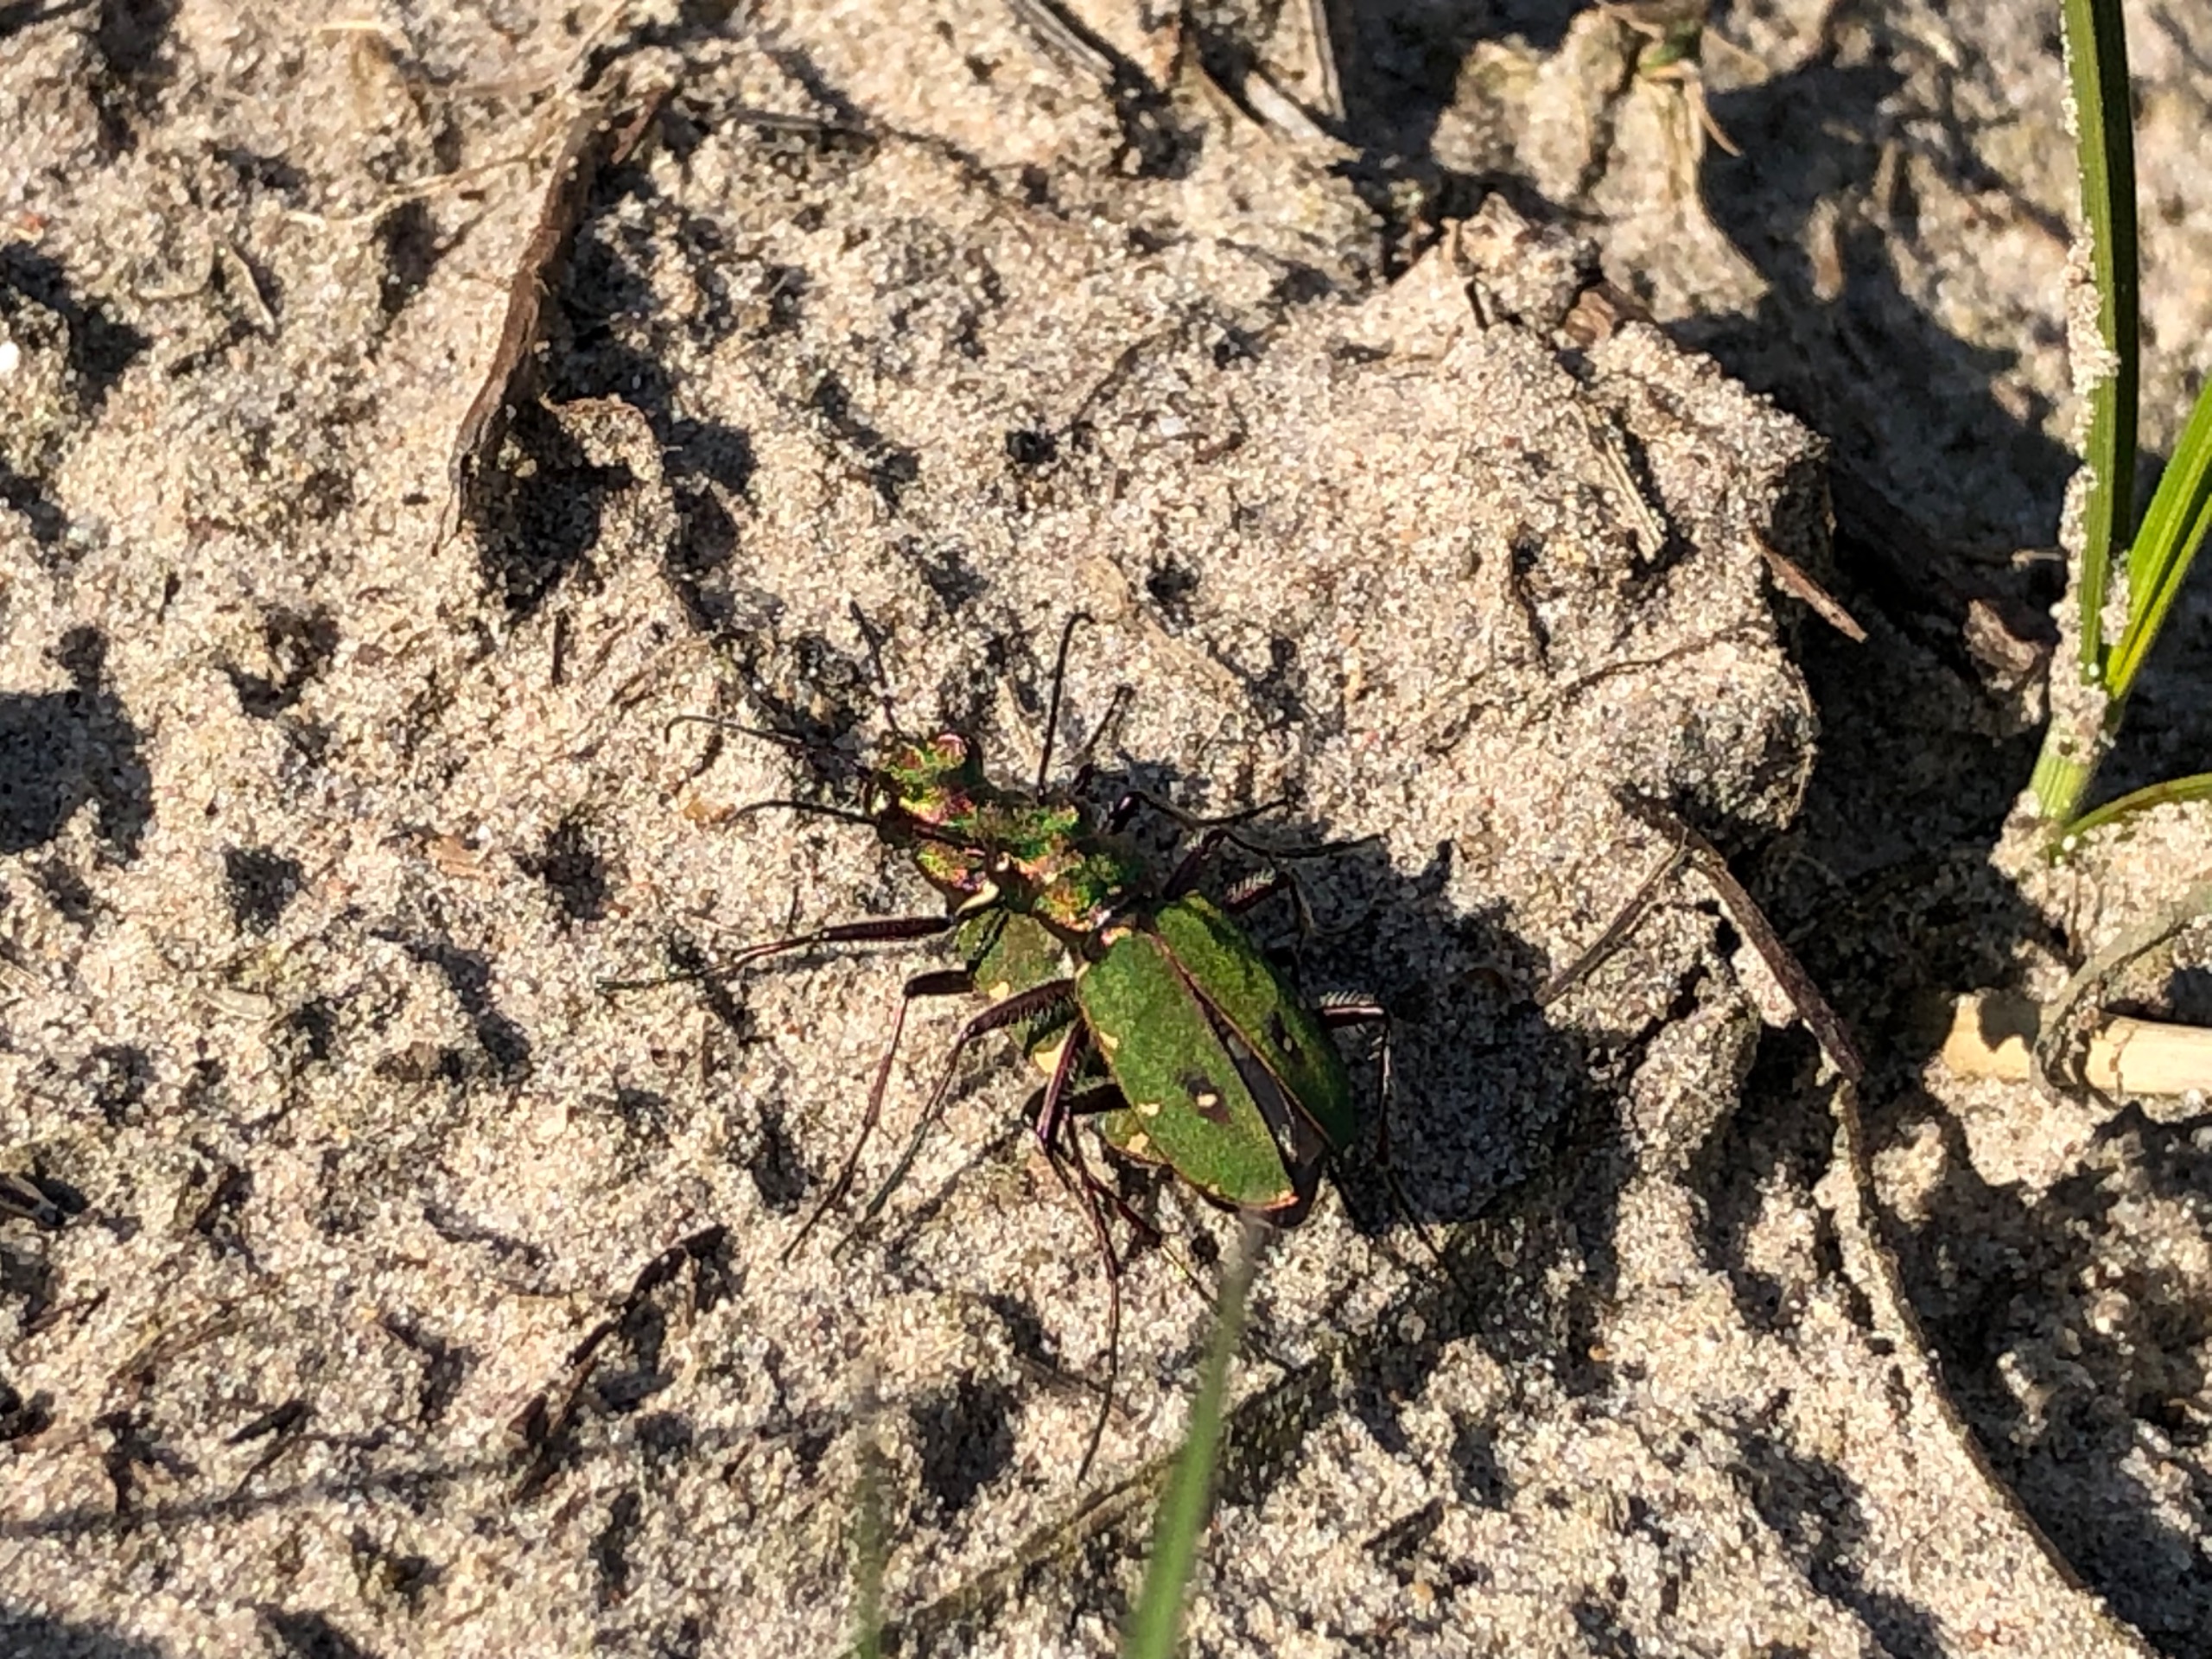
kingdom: Animalia
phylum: Arthropoda
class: Insecta
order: Coleoptera
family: Carabidae
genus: Cicindela
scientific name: Cicindela campestris
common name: Grøn sandspringer
